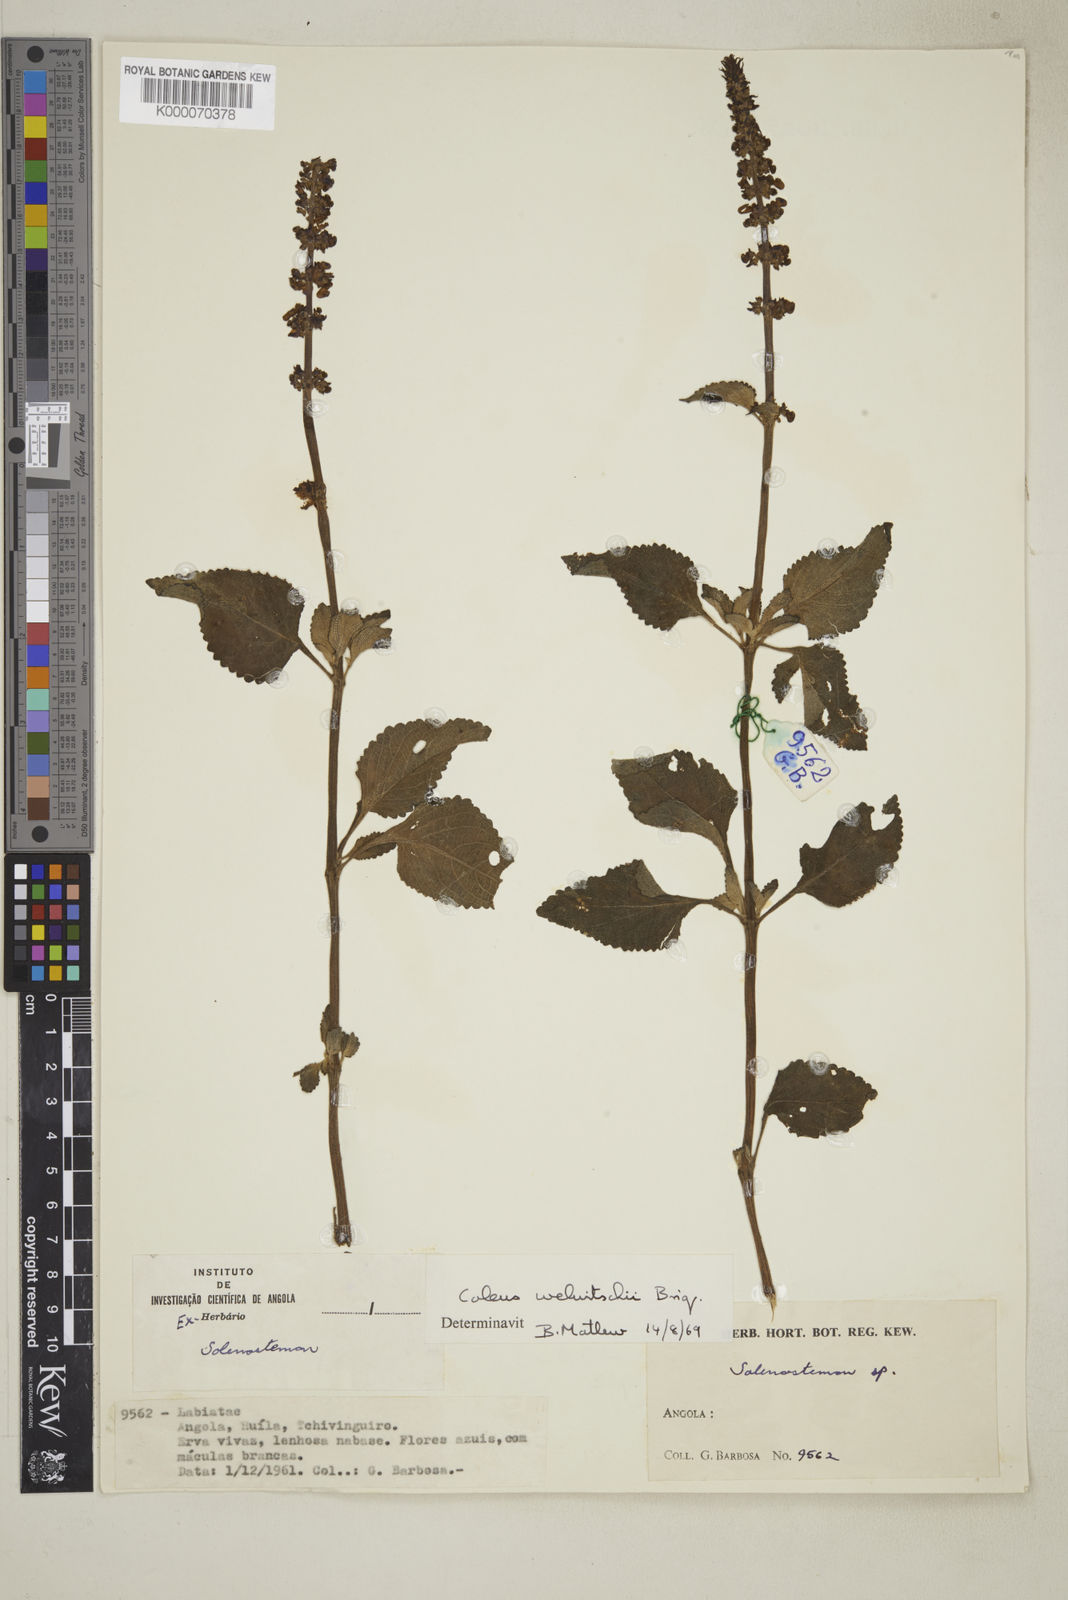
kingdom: Plantae
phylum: Tracheophyta
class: Magnoliopsida
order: Lamiales
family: Lamiaceae
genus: Coleus
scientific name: Coleus welwitschii
